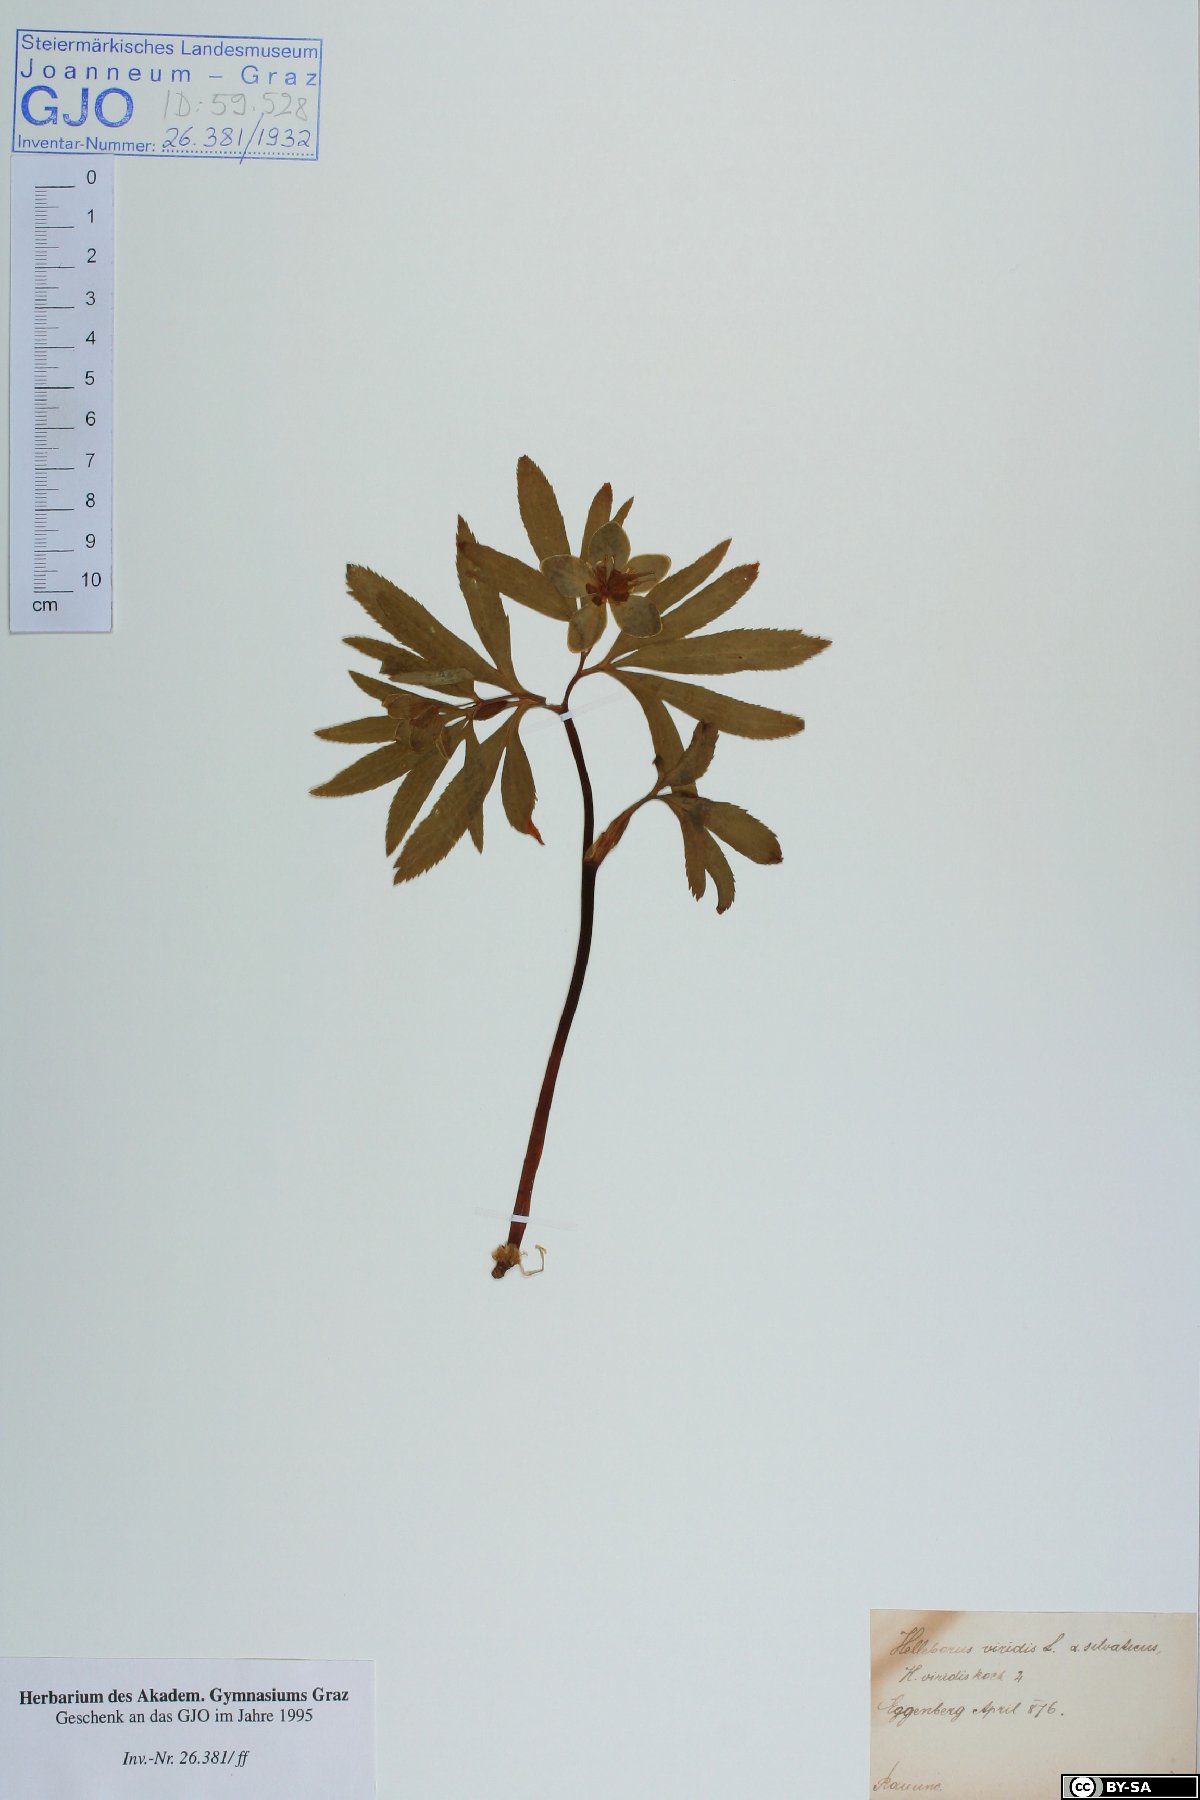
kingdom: Plantae
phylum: Tracheophyta
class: Magnoliopsida
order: Ranunculales
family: Ranunculaceae
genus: Helleborus
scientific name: Helleborus dumetorum
